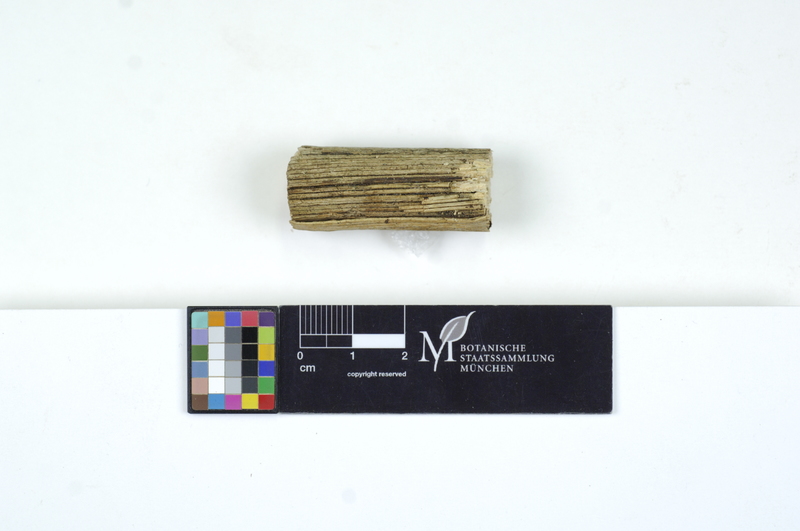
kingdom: Plantae
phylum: Tracheophyta
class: Magnoliopsida
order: Ranunculales
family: Ranunculaceae
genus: Clematis
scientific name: Clematis
